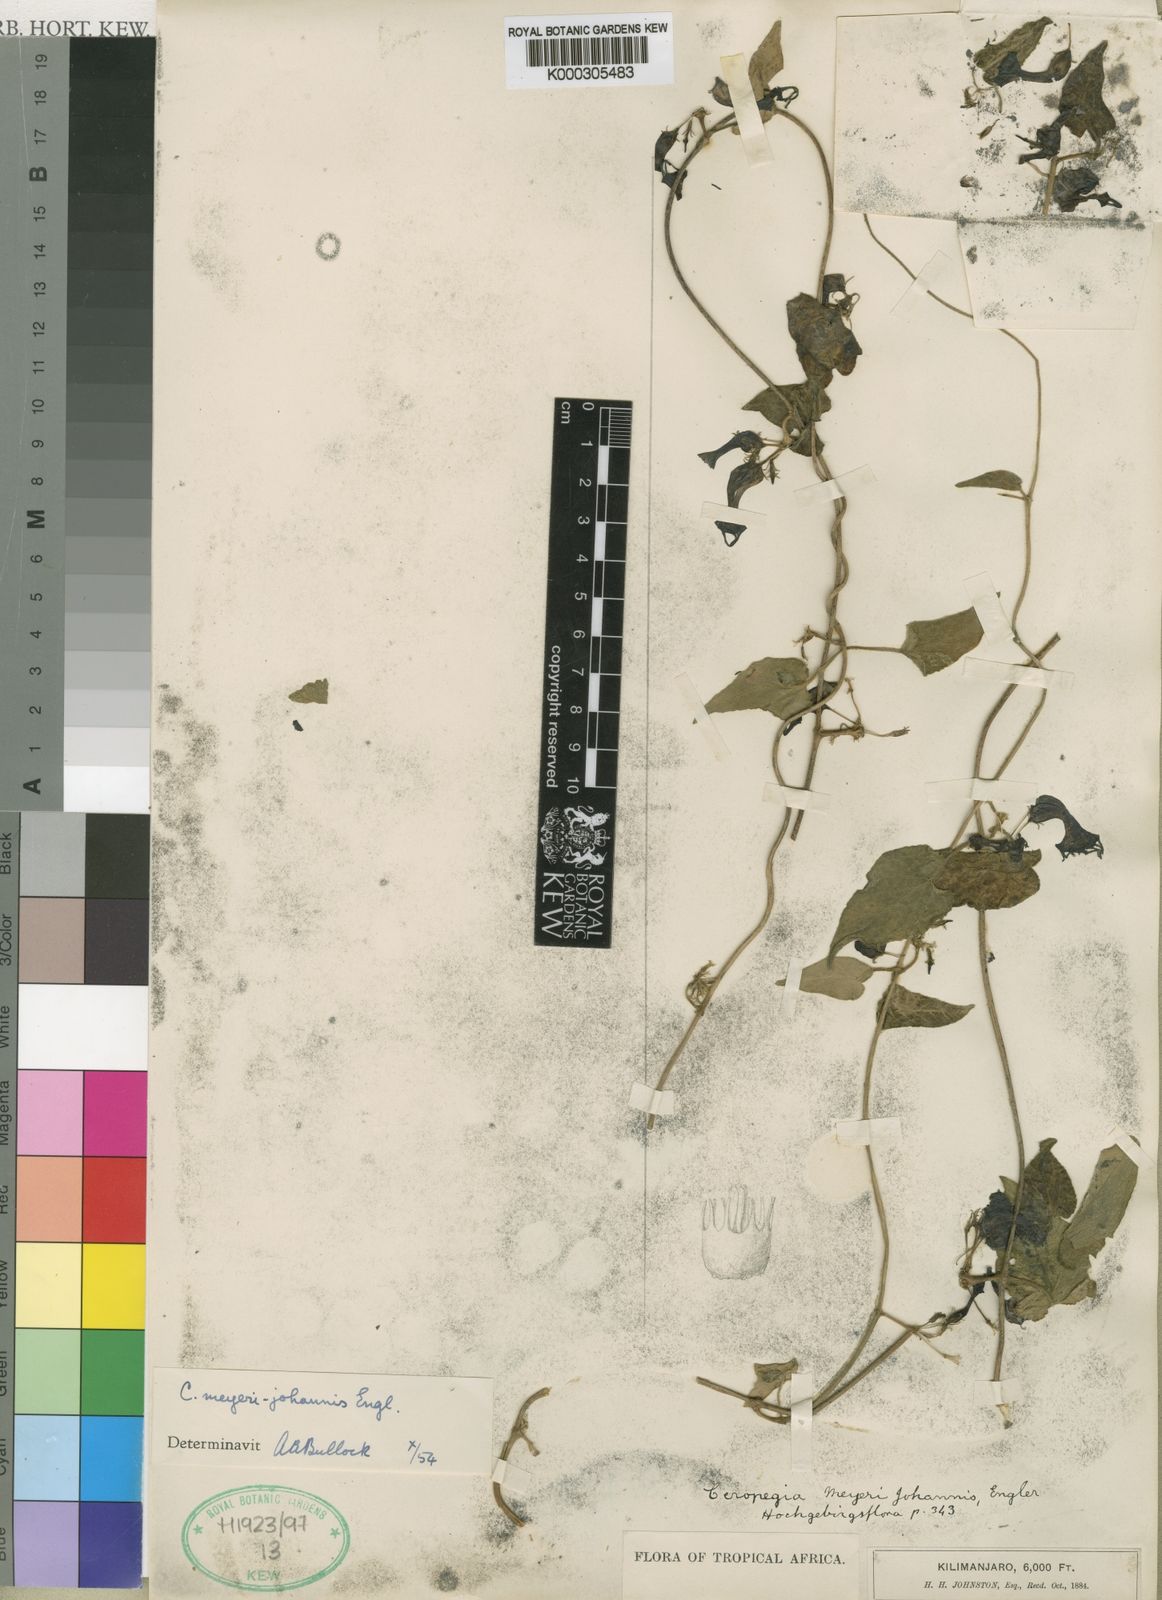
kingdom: Plantae
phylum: Tracheophyta
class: Magnoliopsida
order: Gentianales
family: Apocynaceae
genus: Ceropegia
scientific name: Ceropegia meyeri-johannis
